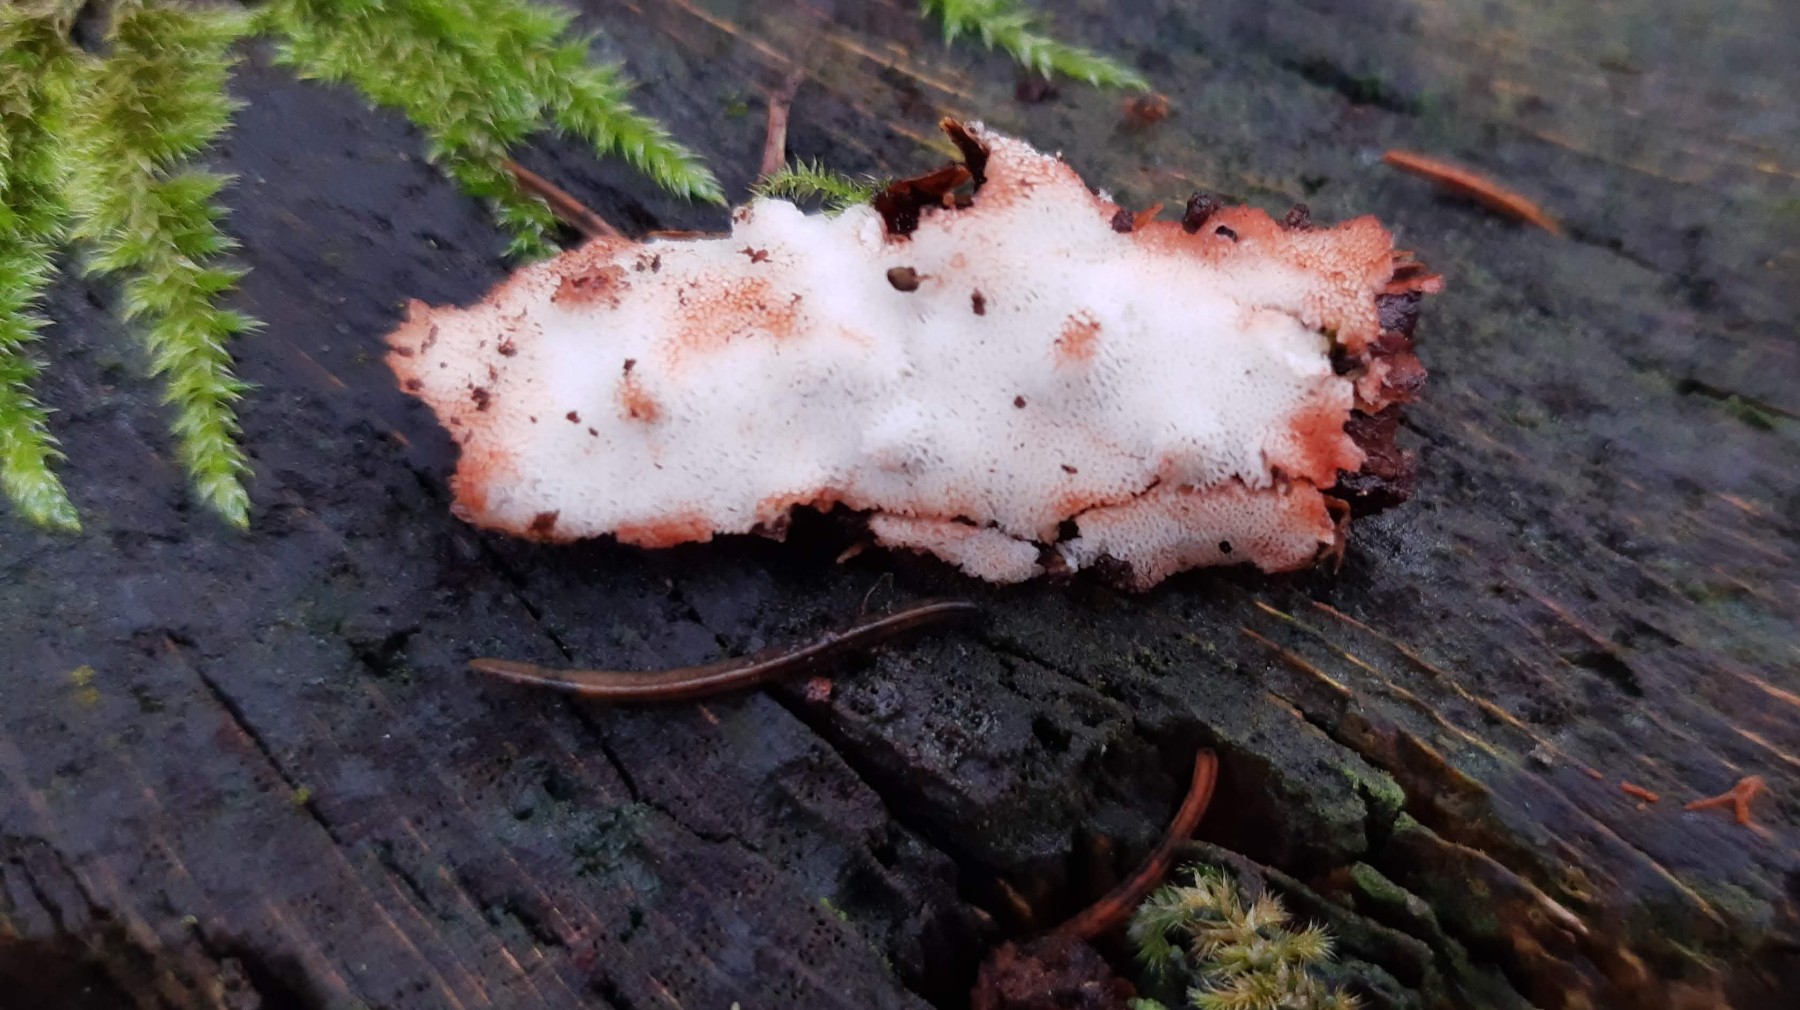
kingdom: Fungi
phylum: Basidiomycota
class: Agaricomycetes
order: Polyporales
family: Meripilaceae
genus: Rigidoporus
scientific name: Rigidoporus sanguinolentus
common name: blod-skorpeporesvamp
